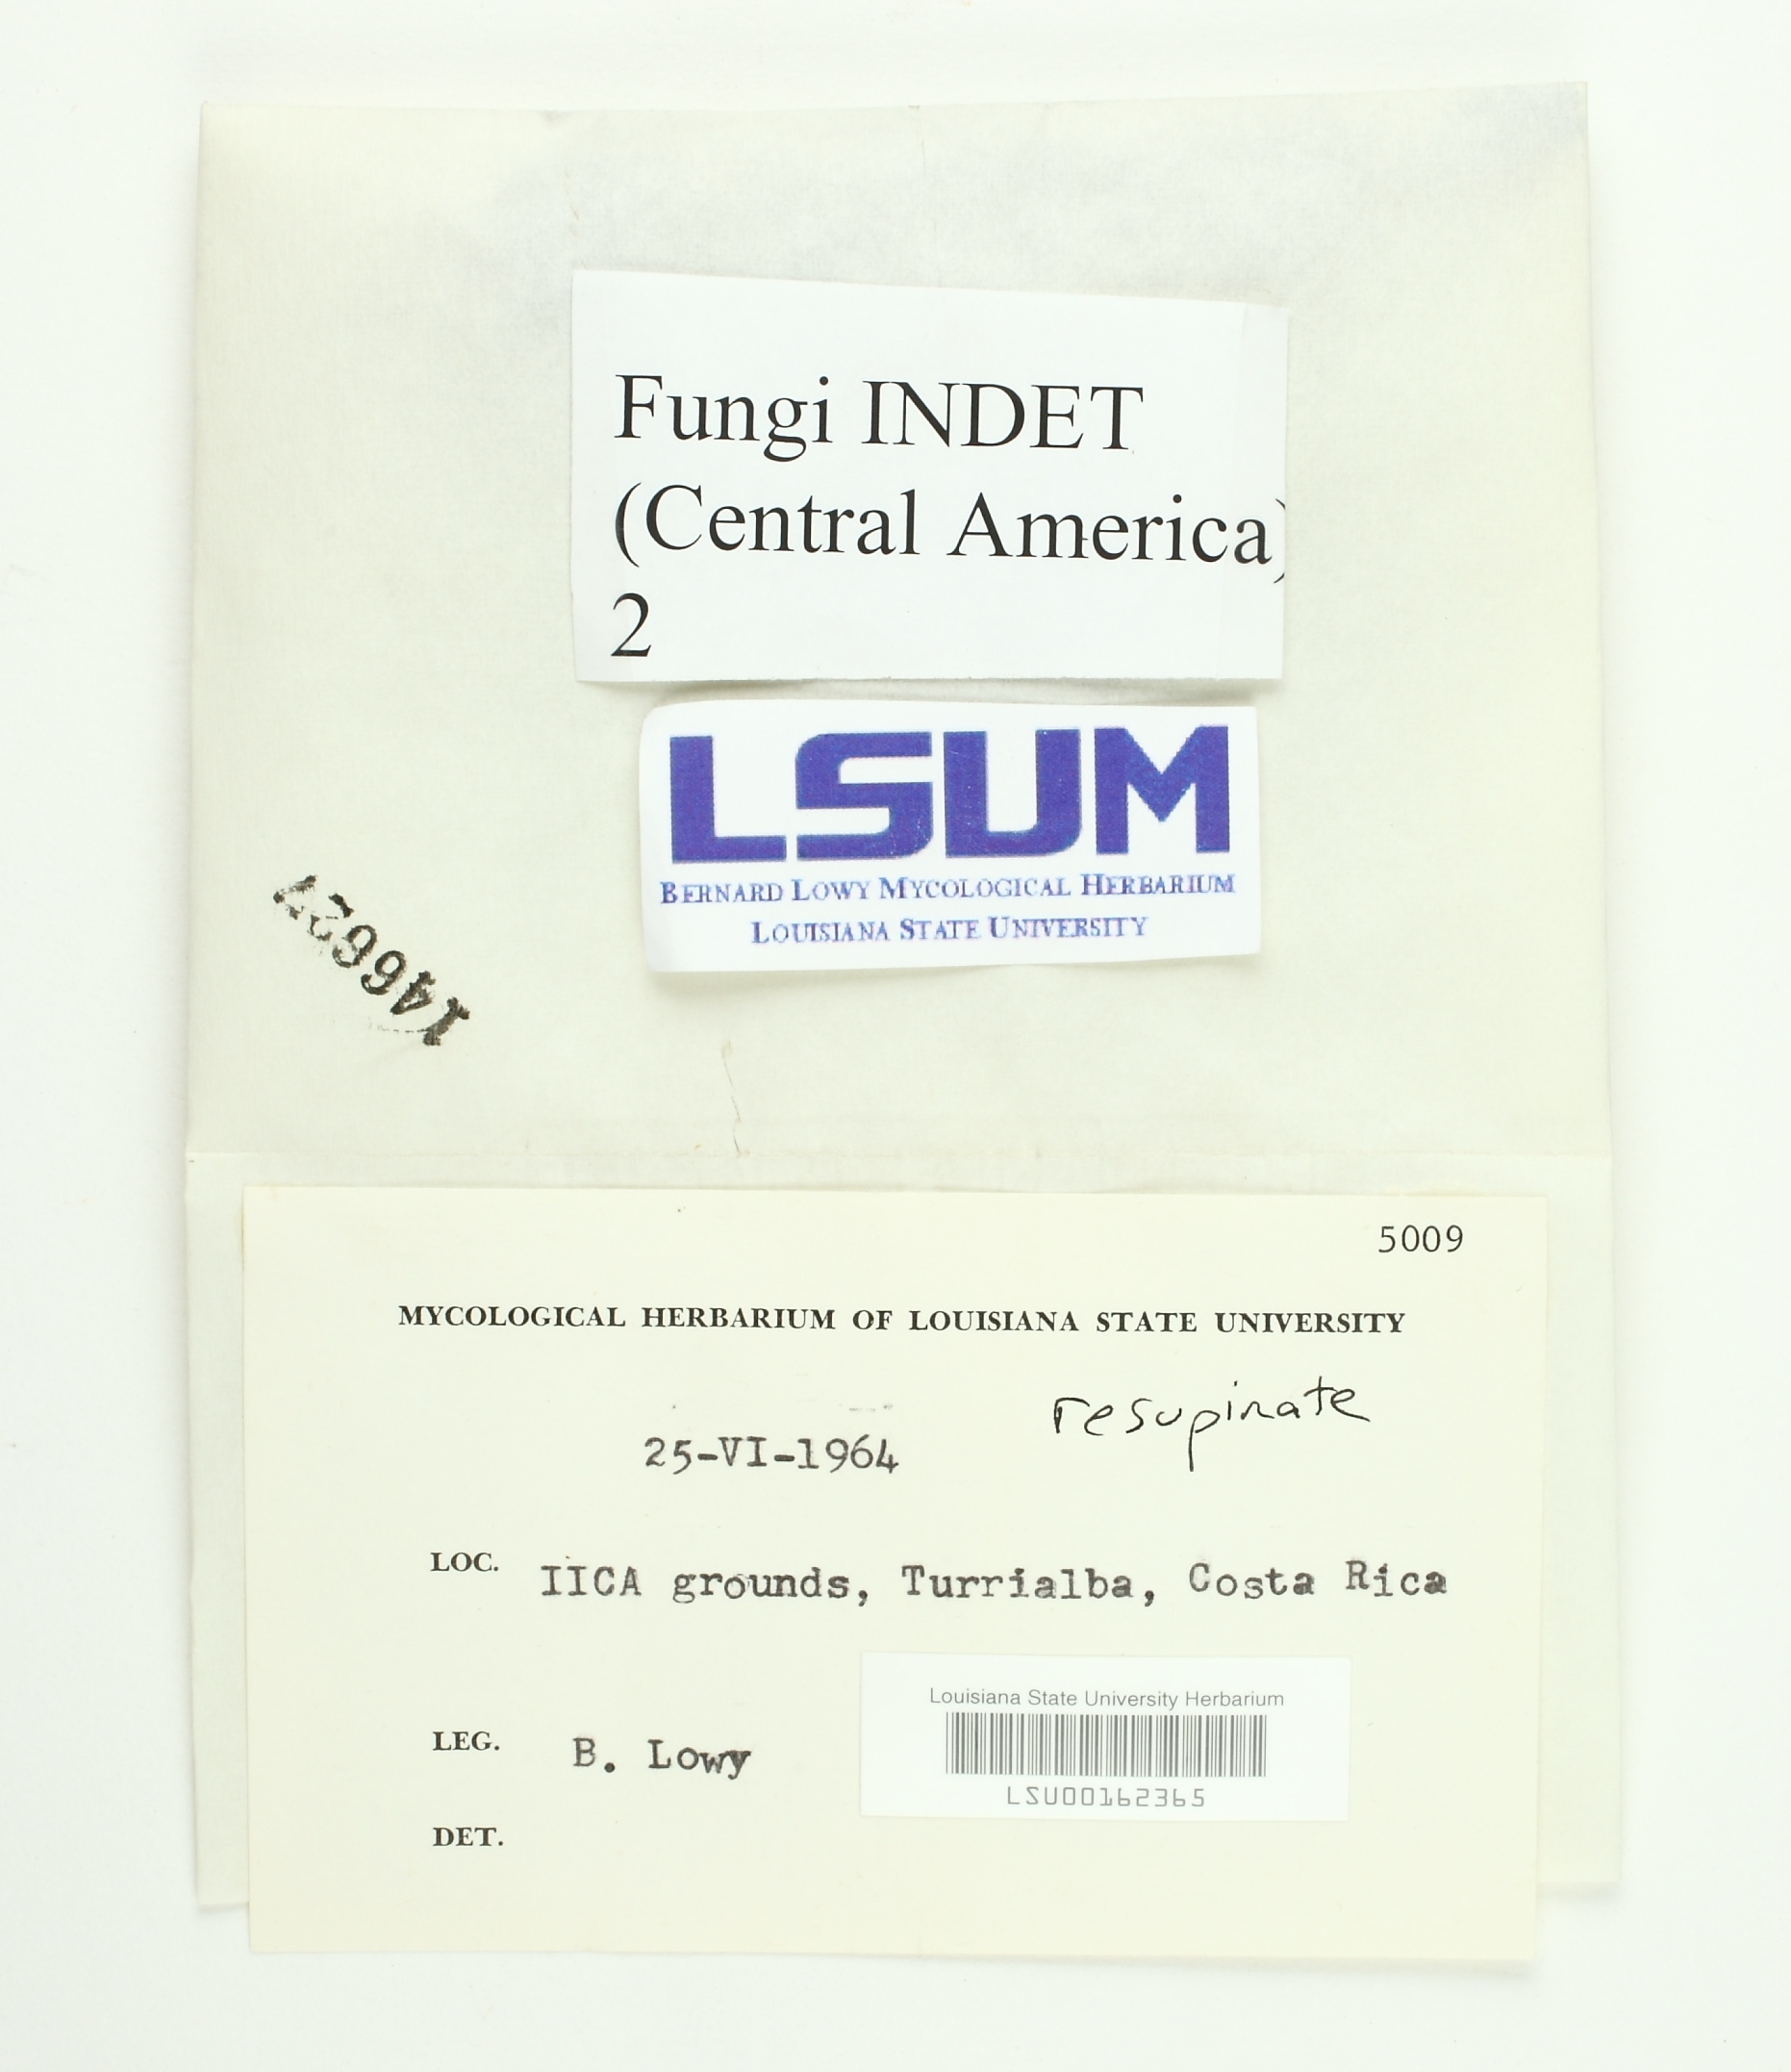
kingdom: Fungi
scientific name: Fungi
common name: Fungi
